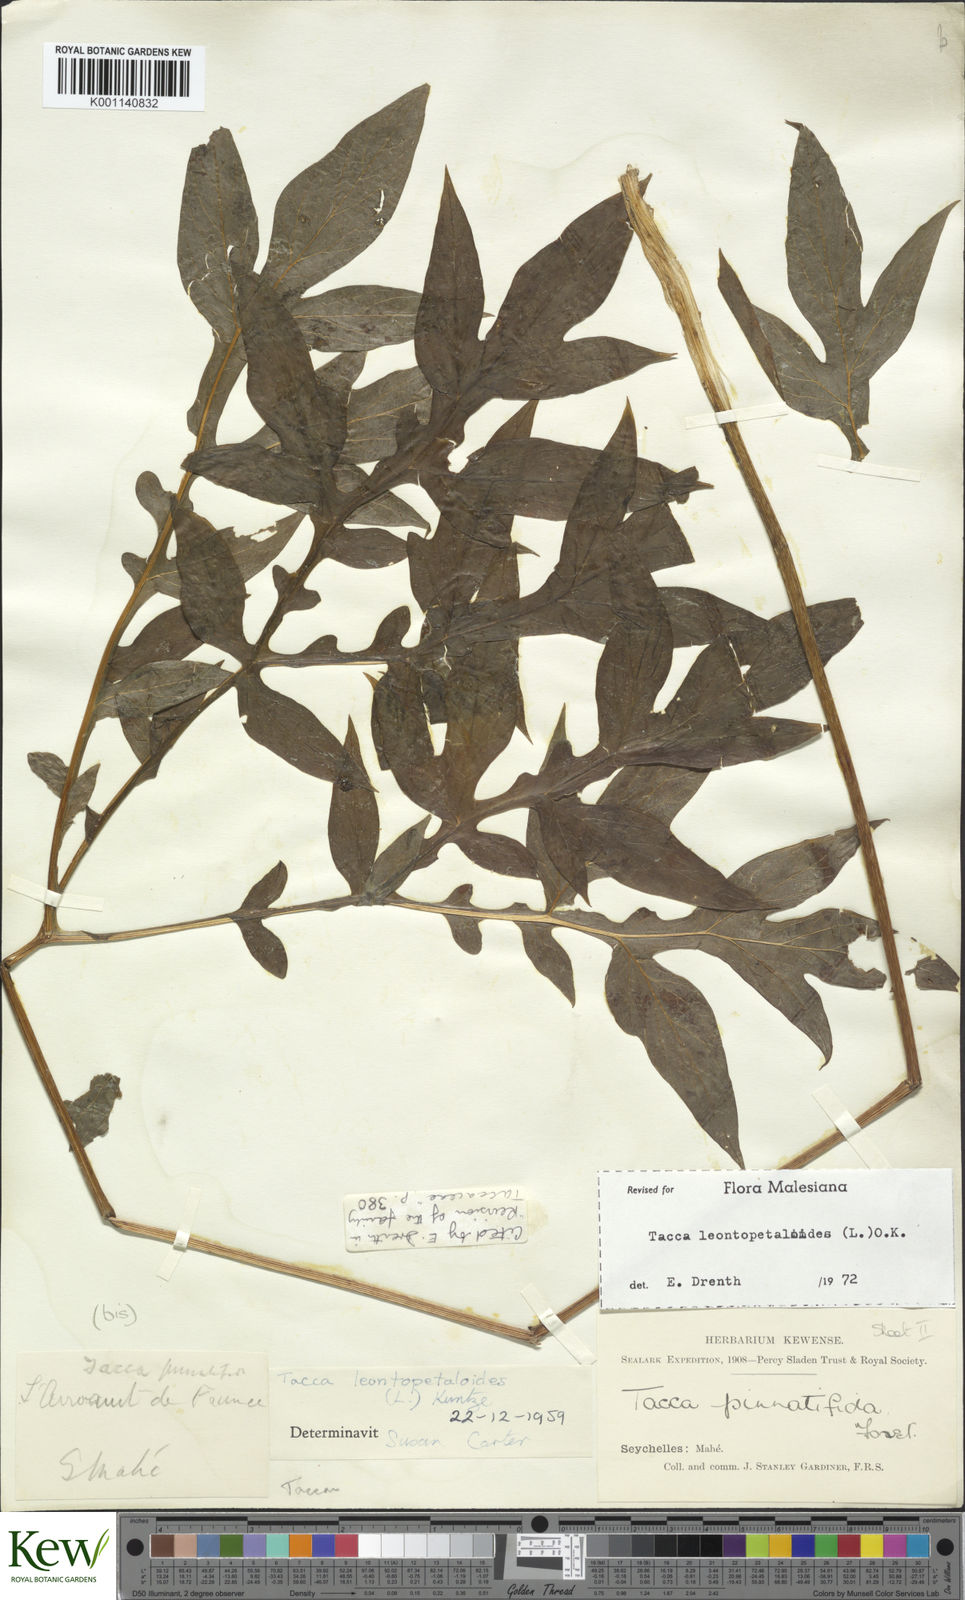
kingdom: Plantae
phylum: Tracheophyta
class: Liliopsida
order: Dioscoreales
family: Dioscoreaceae
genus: Tacca
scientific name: Tacca leontopetaloides
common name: Arrowroot
